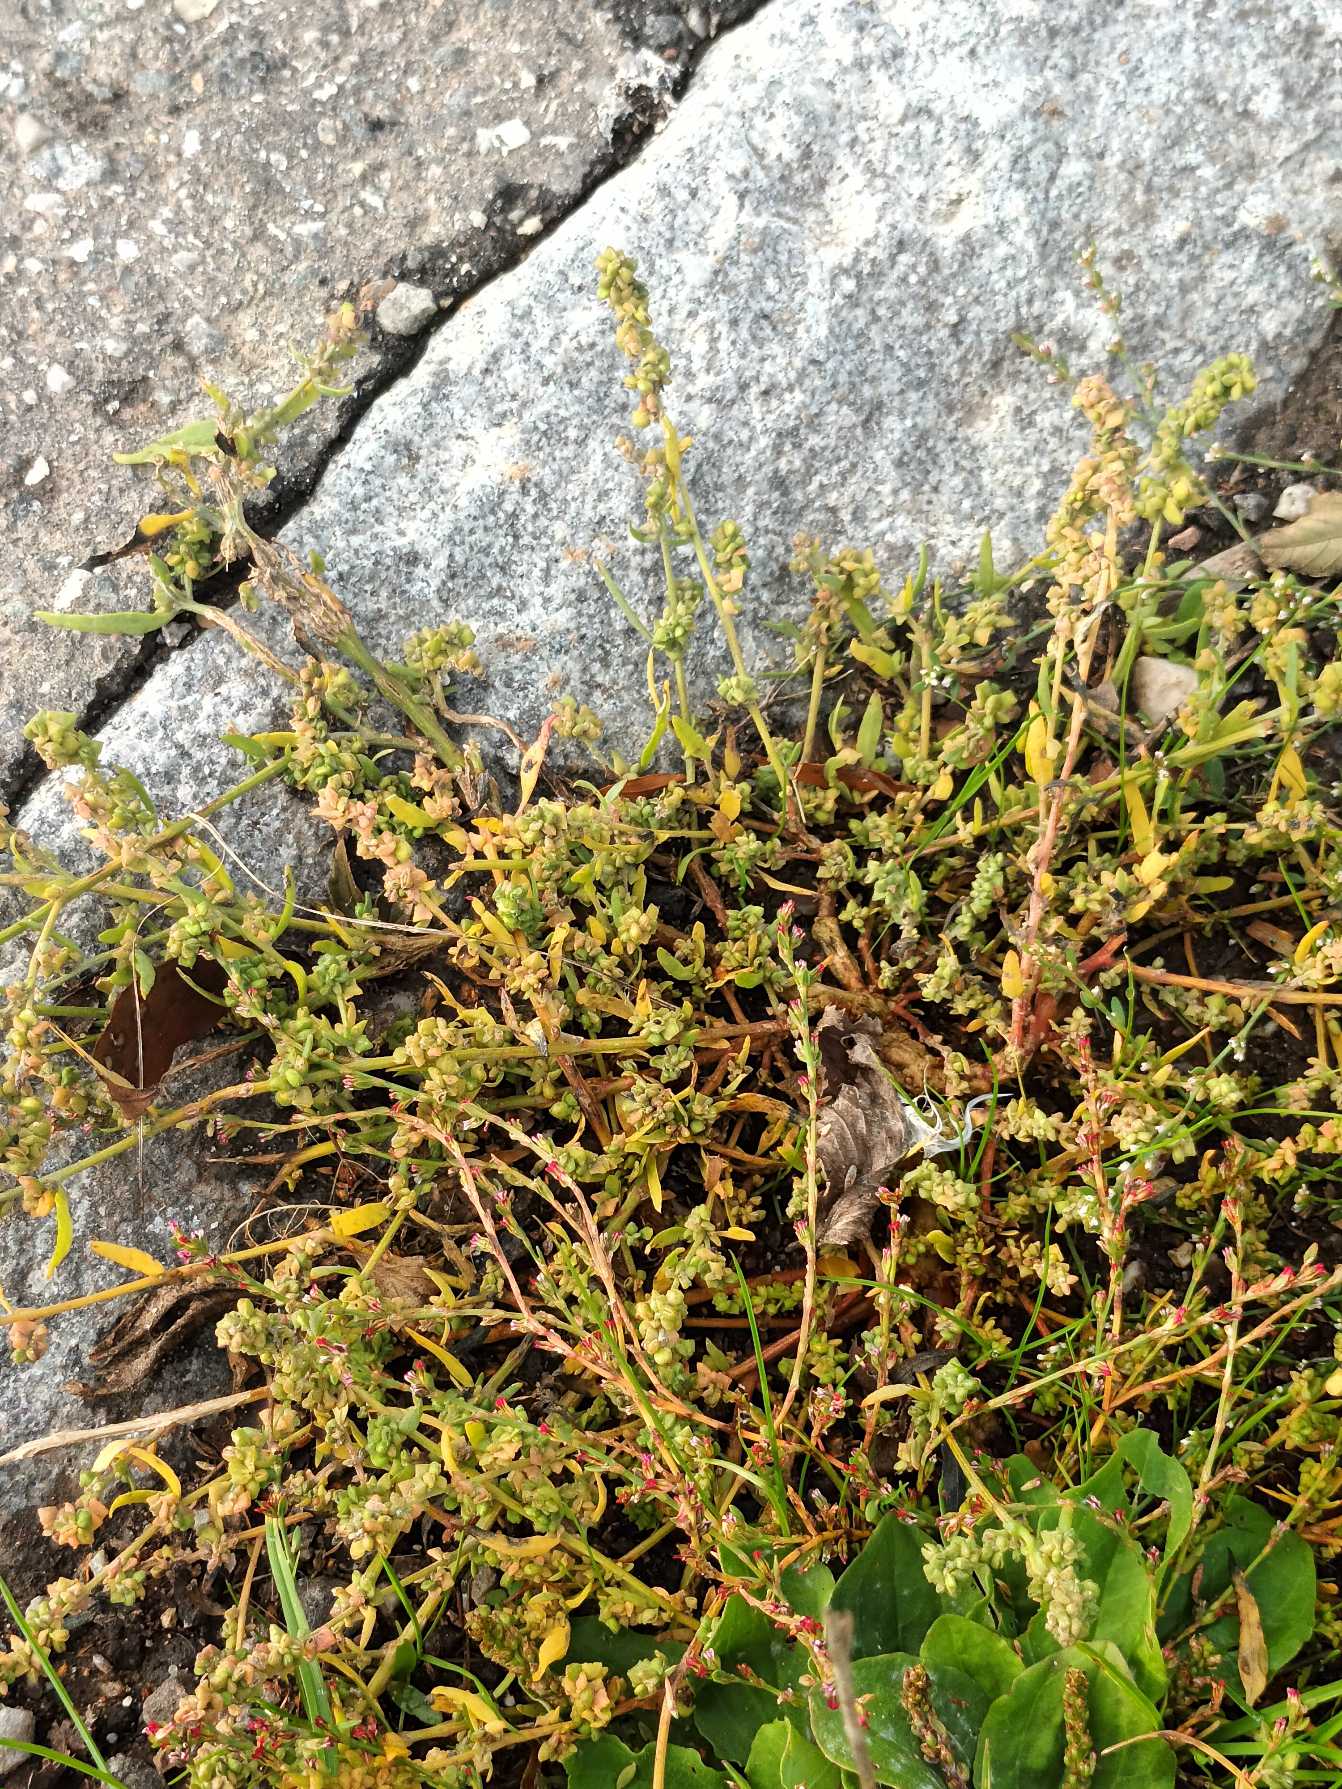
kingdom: Plantae
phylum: Tracheophyta
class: Magnoliopsida
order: Caryophyllales
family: Amaranthaceae
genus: Atriplex
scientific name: Atriplex patula
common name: Svine-mælde
